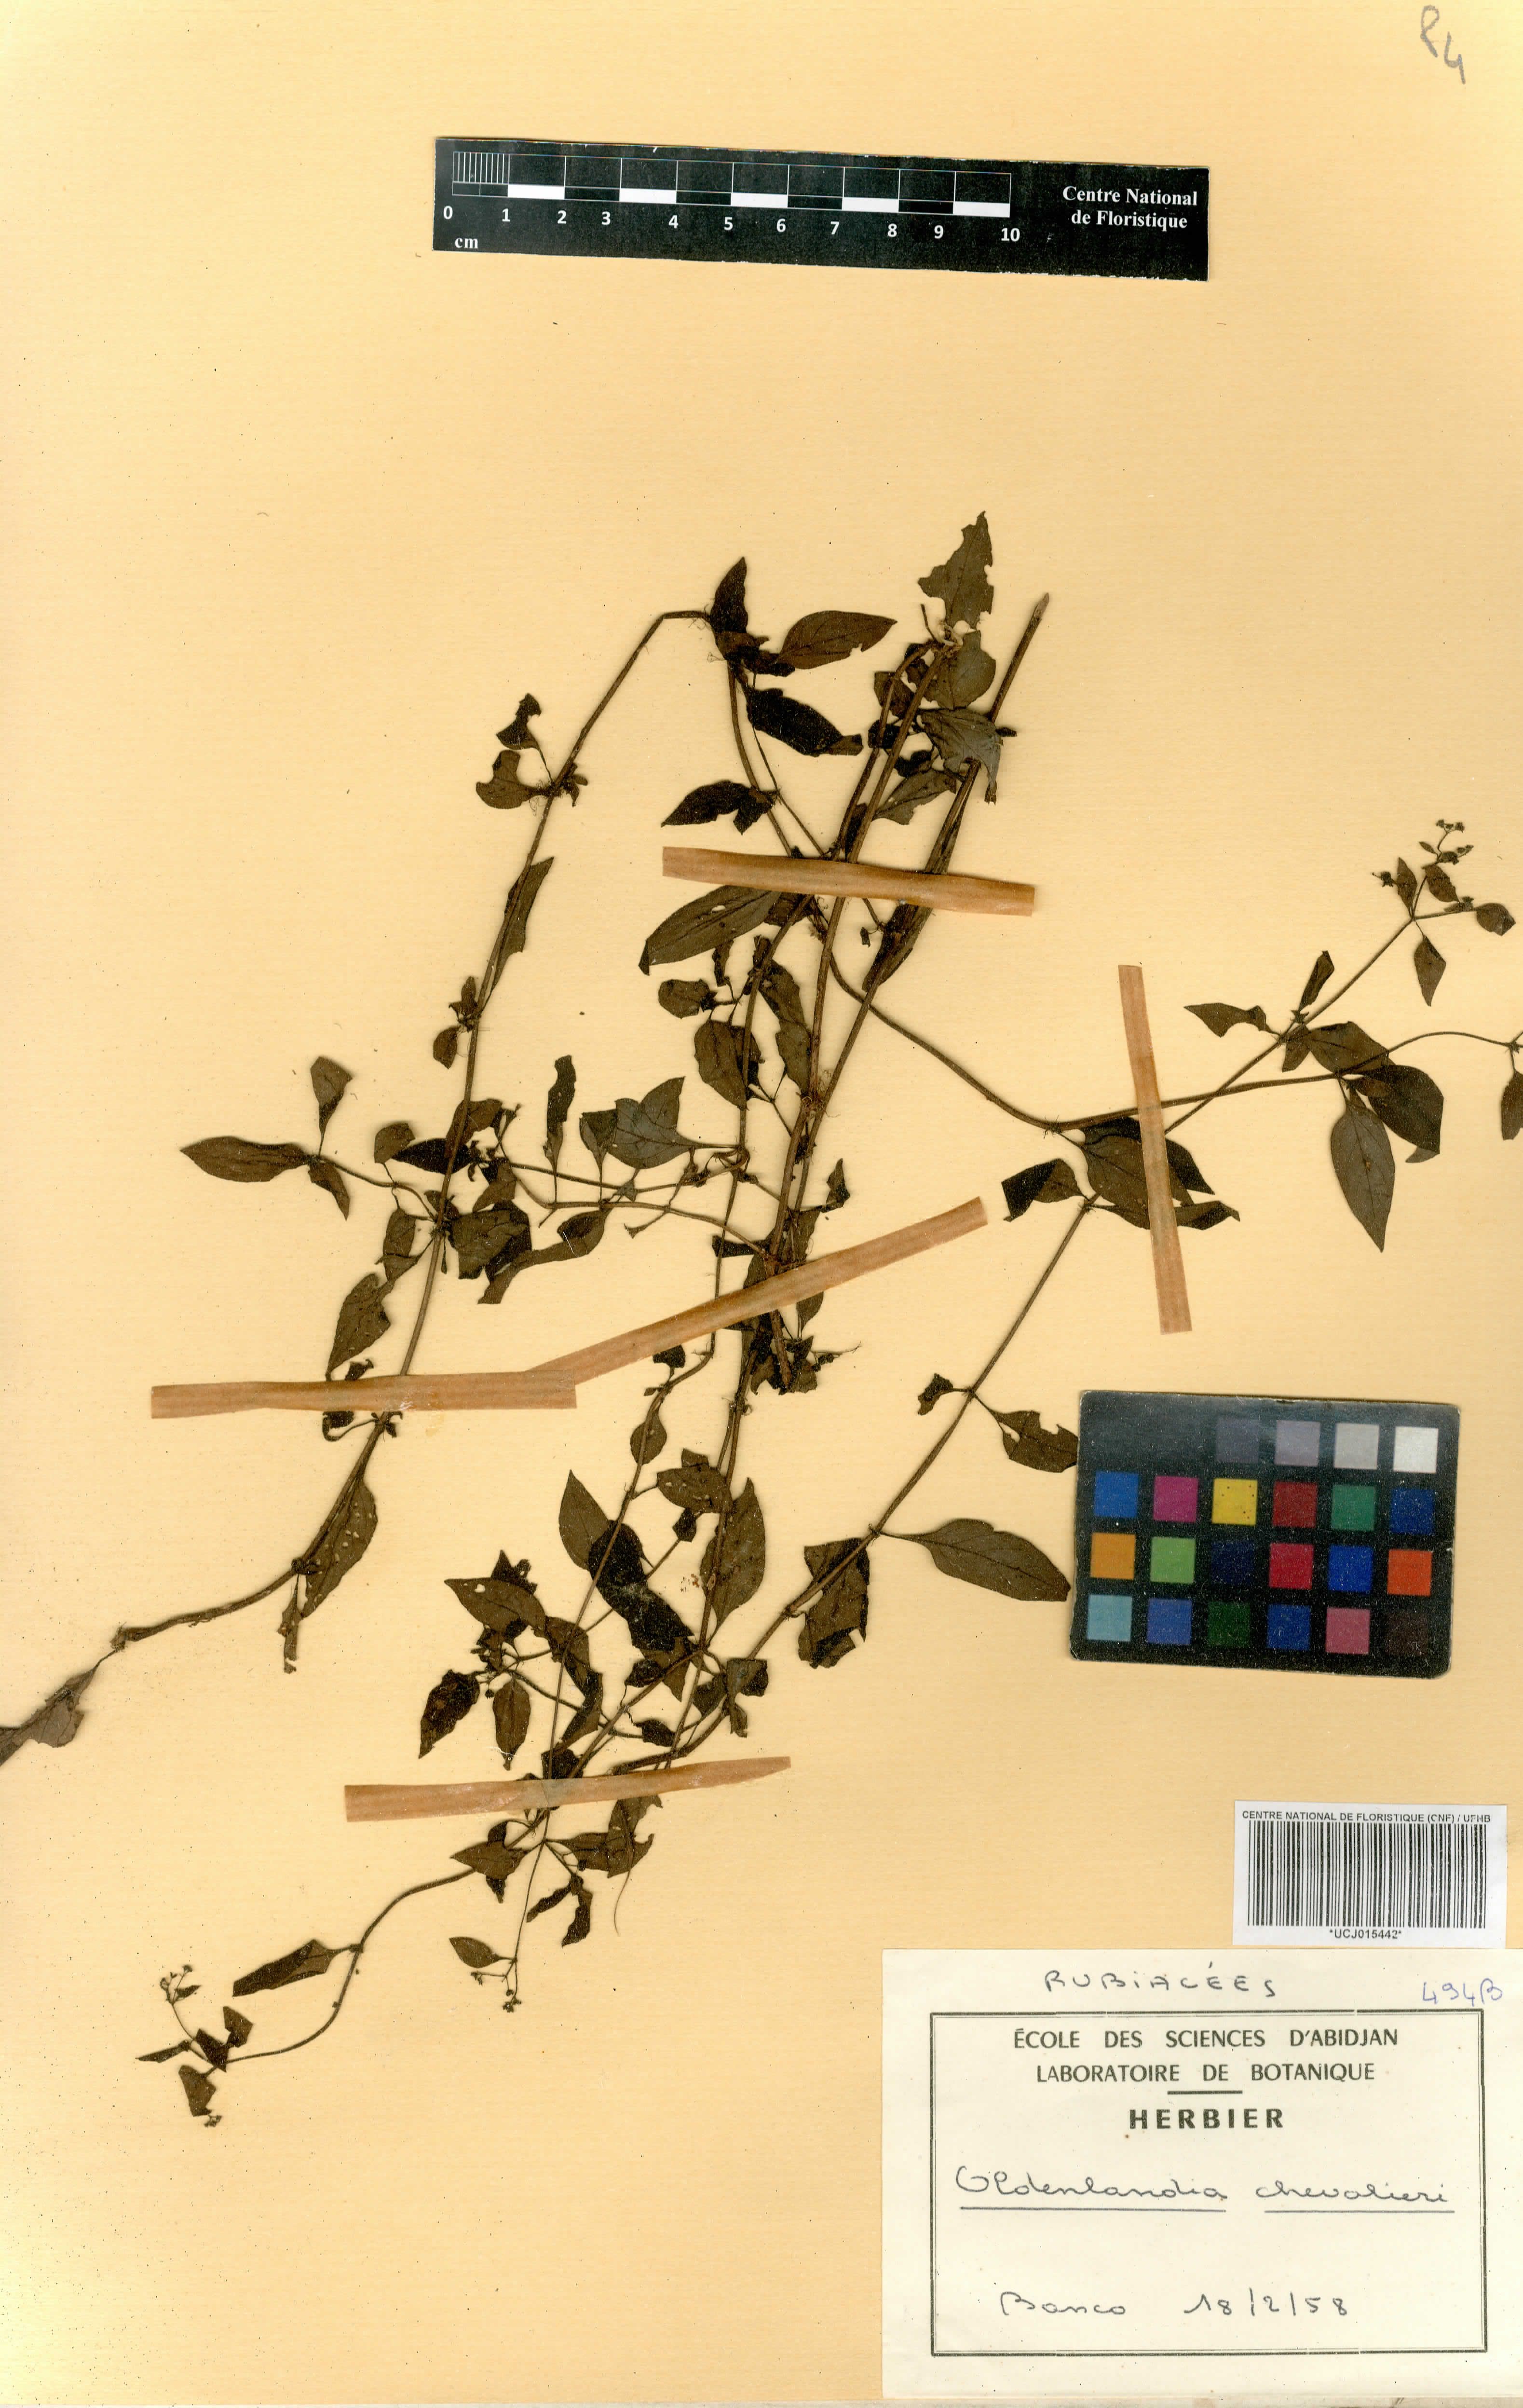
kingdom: Plantae
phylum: Tracheophyta
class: Magnoliopsida
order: Gentianales
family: Rubiaceae
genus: Oldenlandia
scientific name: Oldenlandia johnstonii
